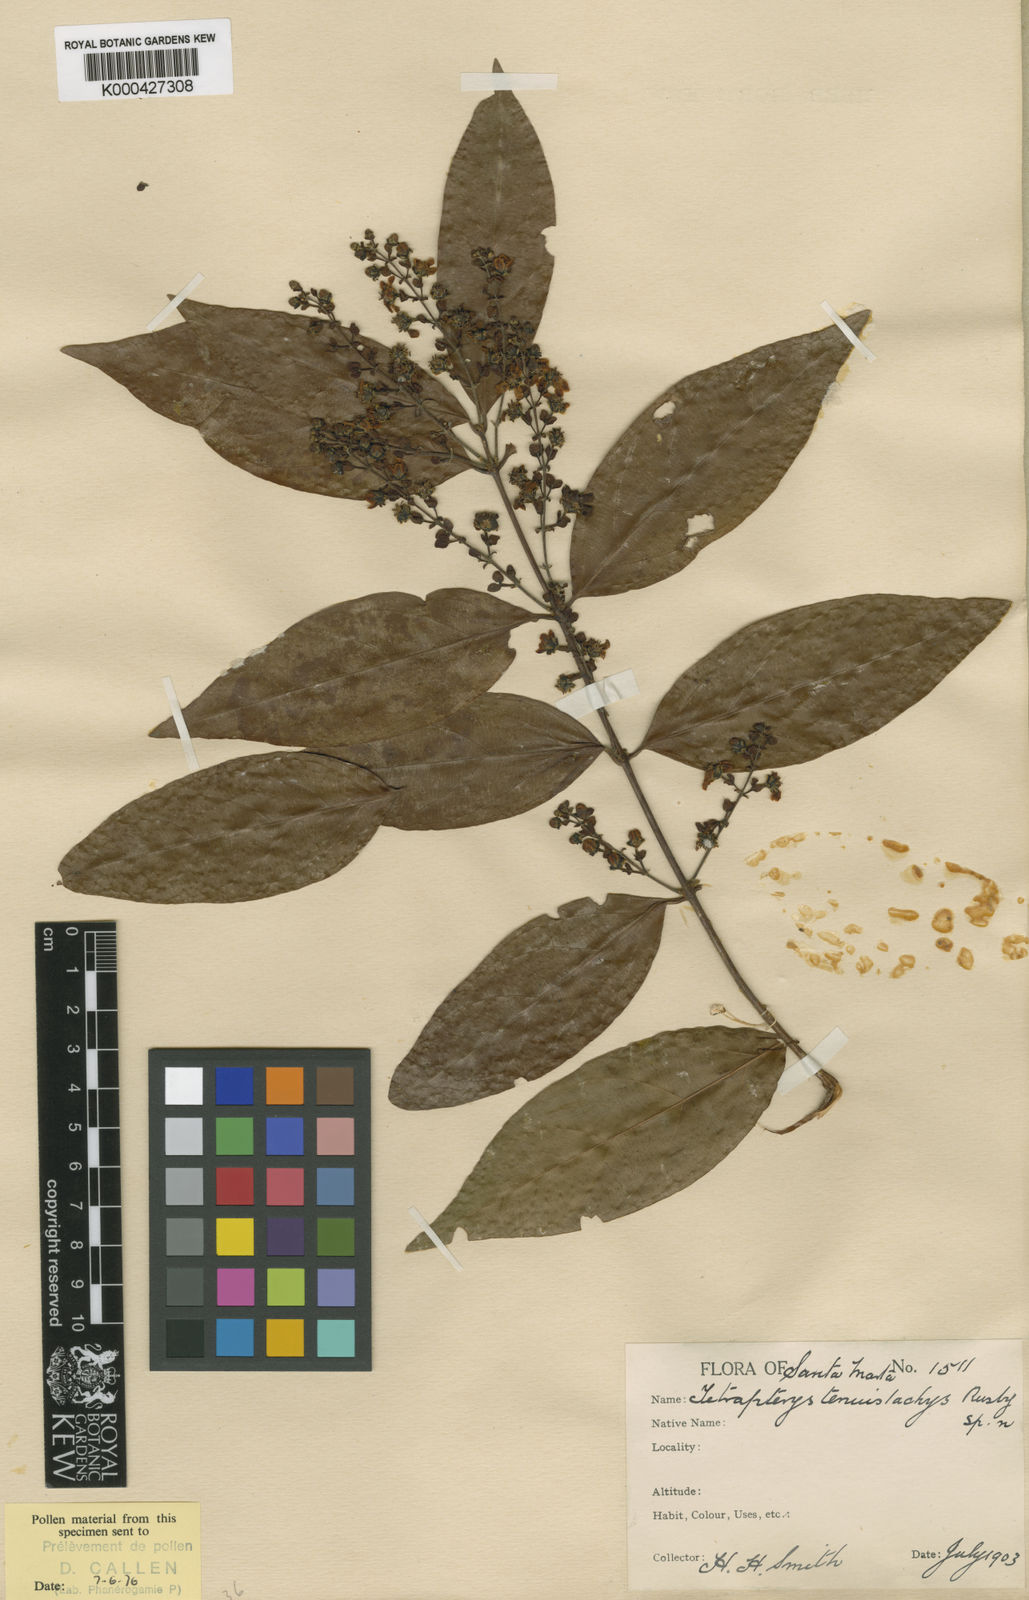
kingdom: Plantae
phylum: Tracheophyta
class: Magnoliopsida
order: Malpighiales
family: Malpighiaceae
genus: Glicophyllum
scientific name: Glicophyllum stylopterum
